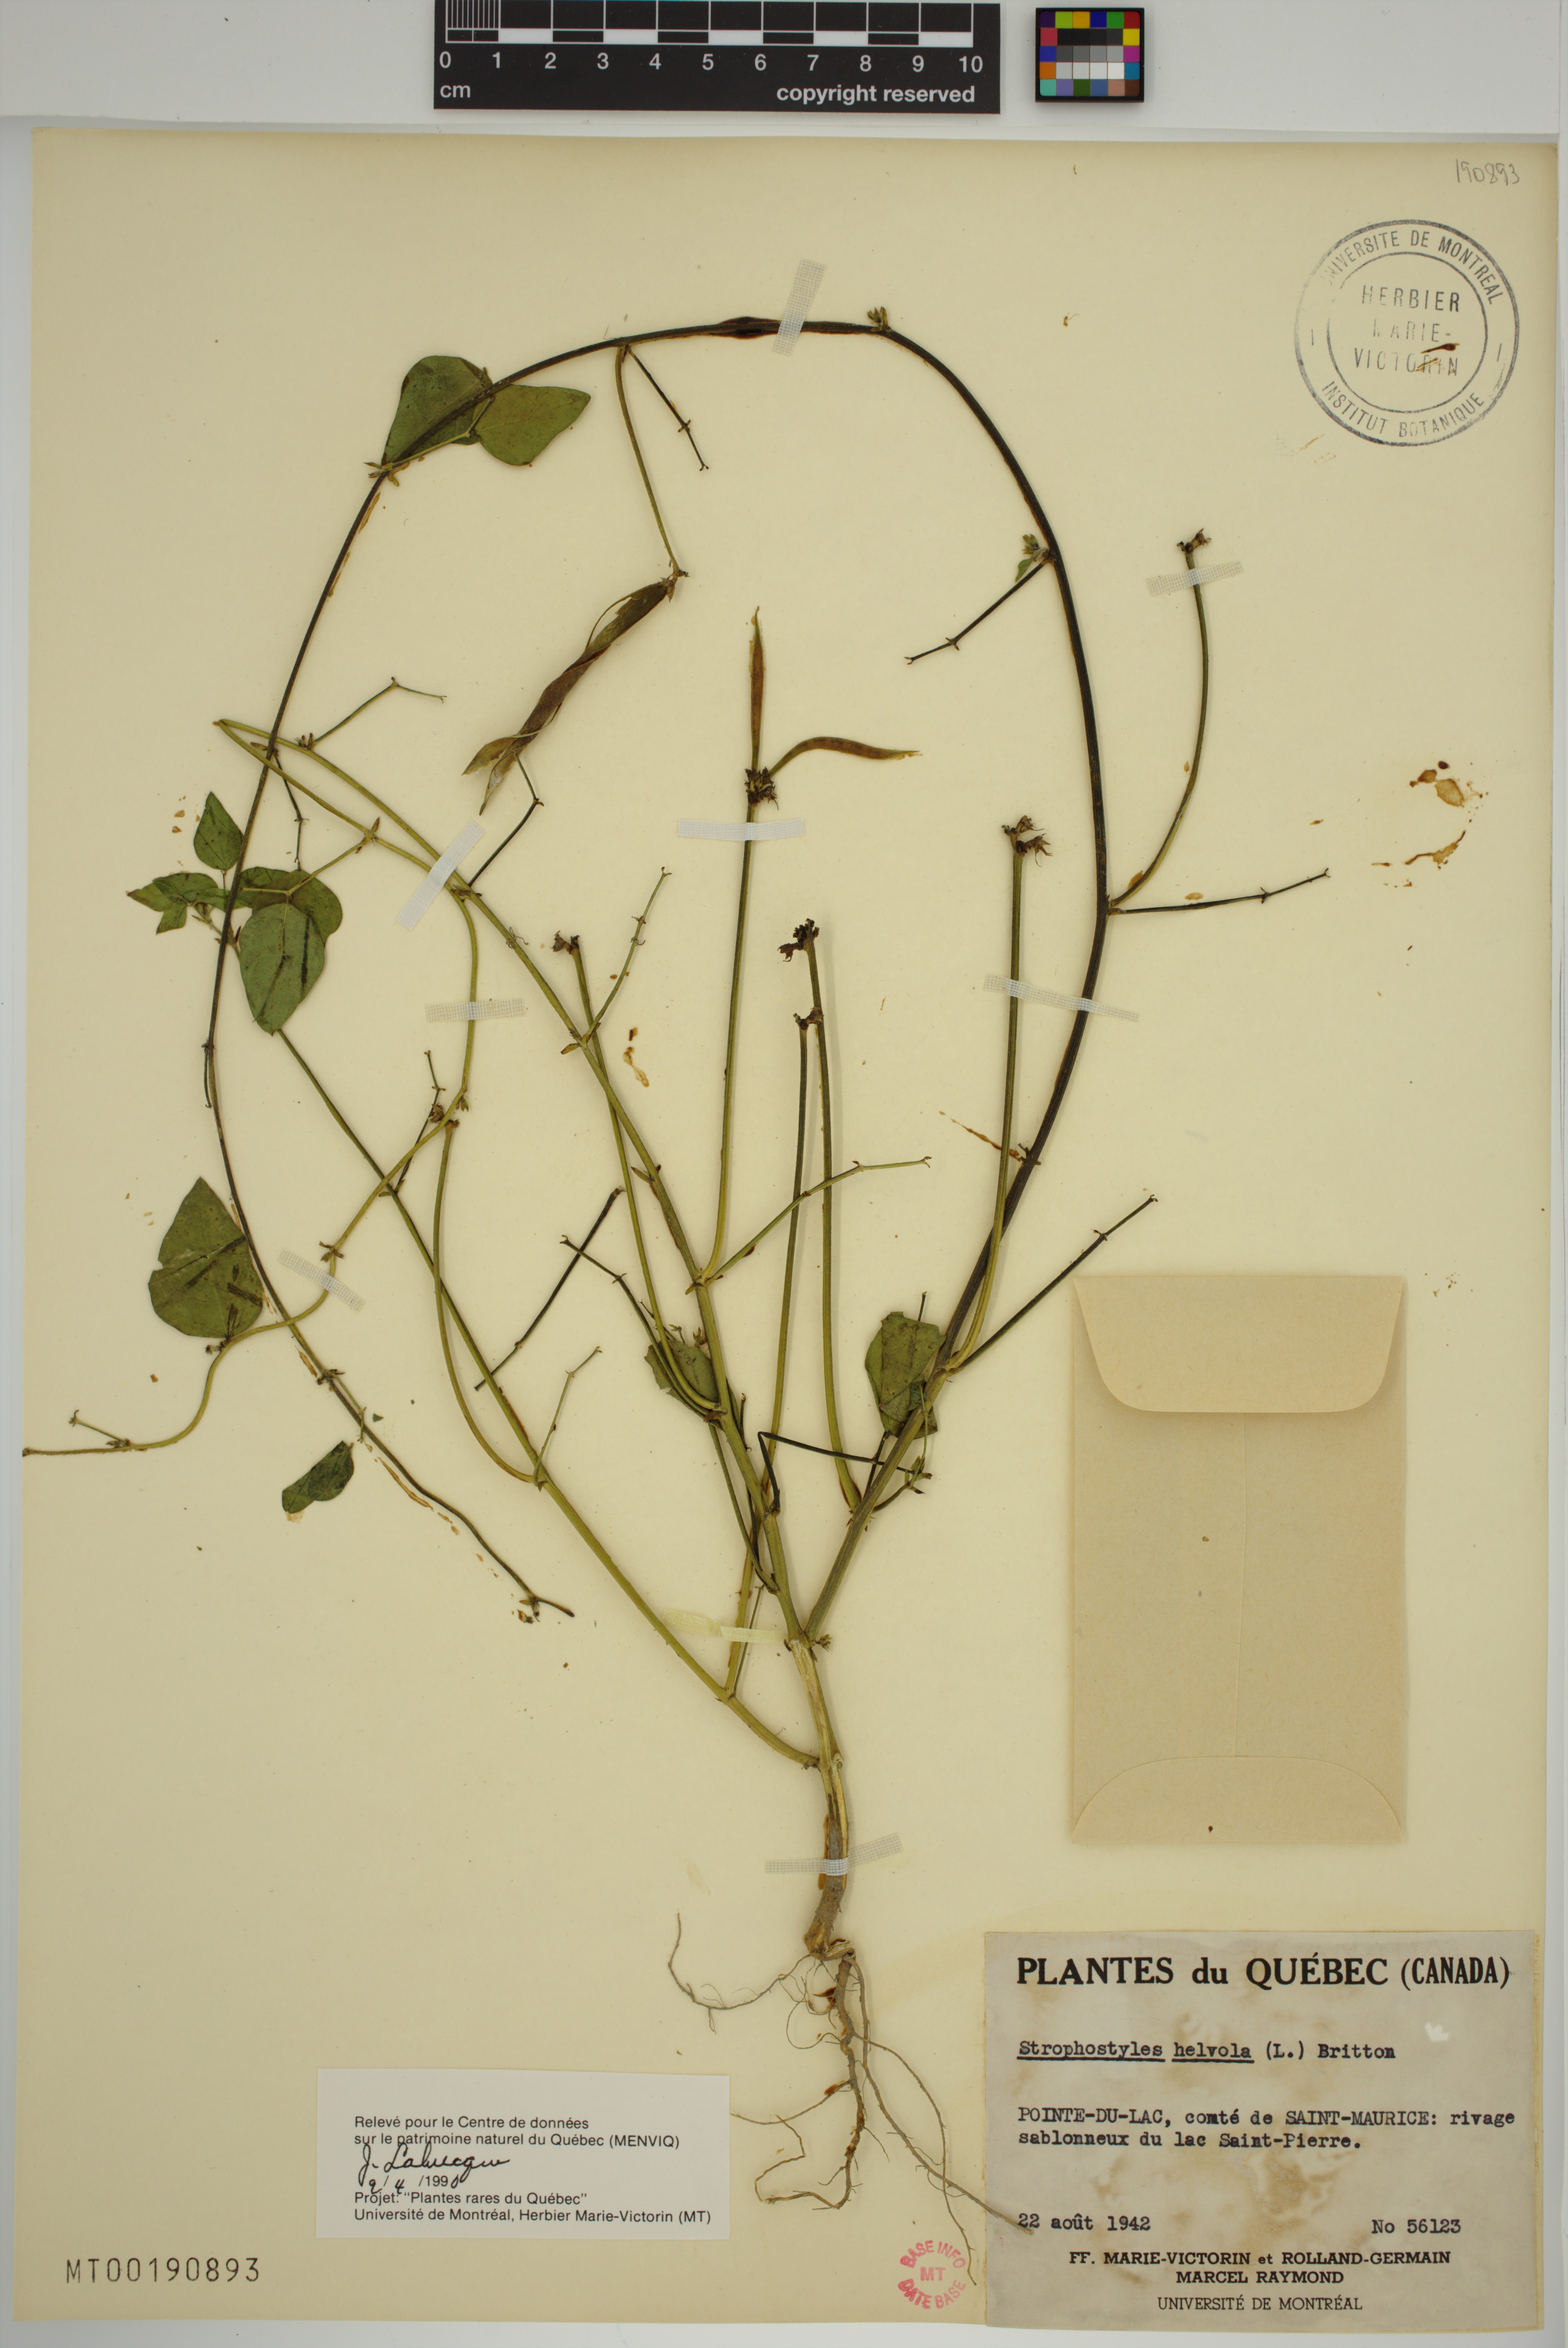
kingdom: Plantae
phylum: Tracheophyta
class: Magnoliopsida
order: Fabales
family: Fabaceae
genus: Strophostyles
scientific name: Strophostyles helvola
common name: Trailing wild bean
